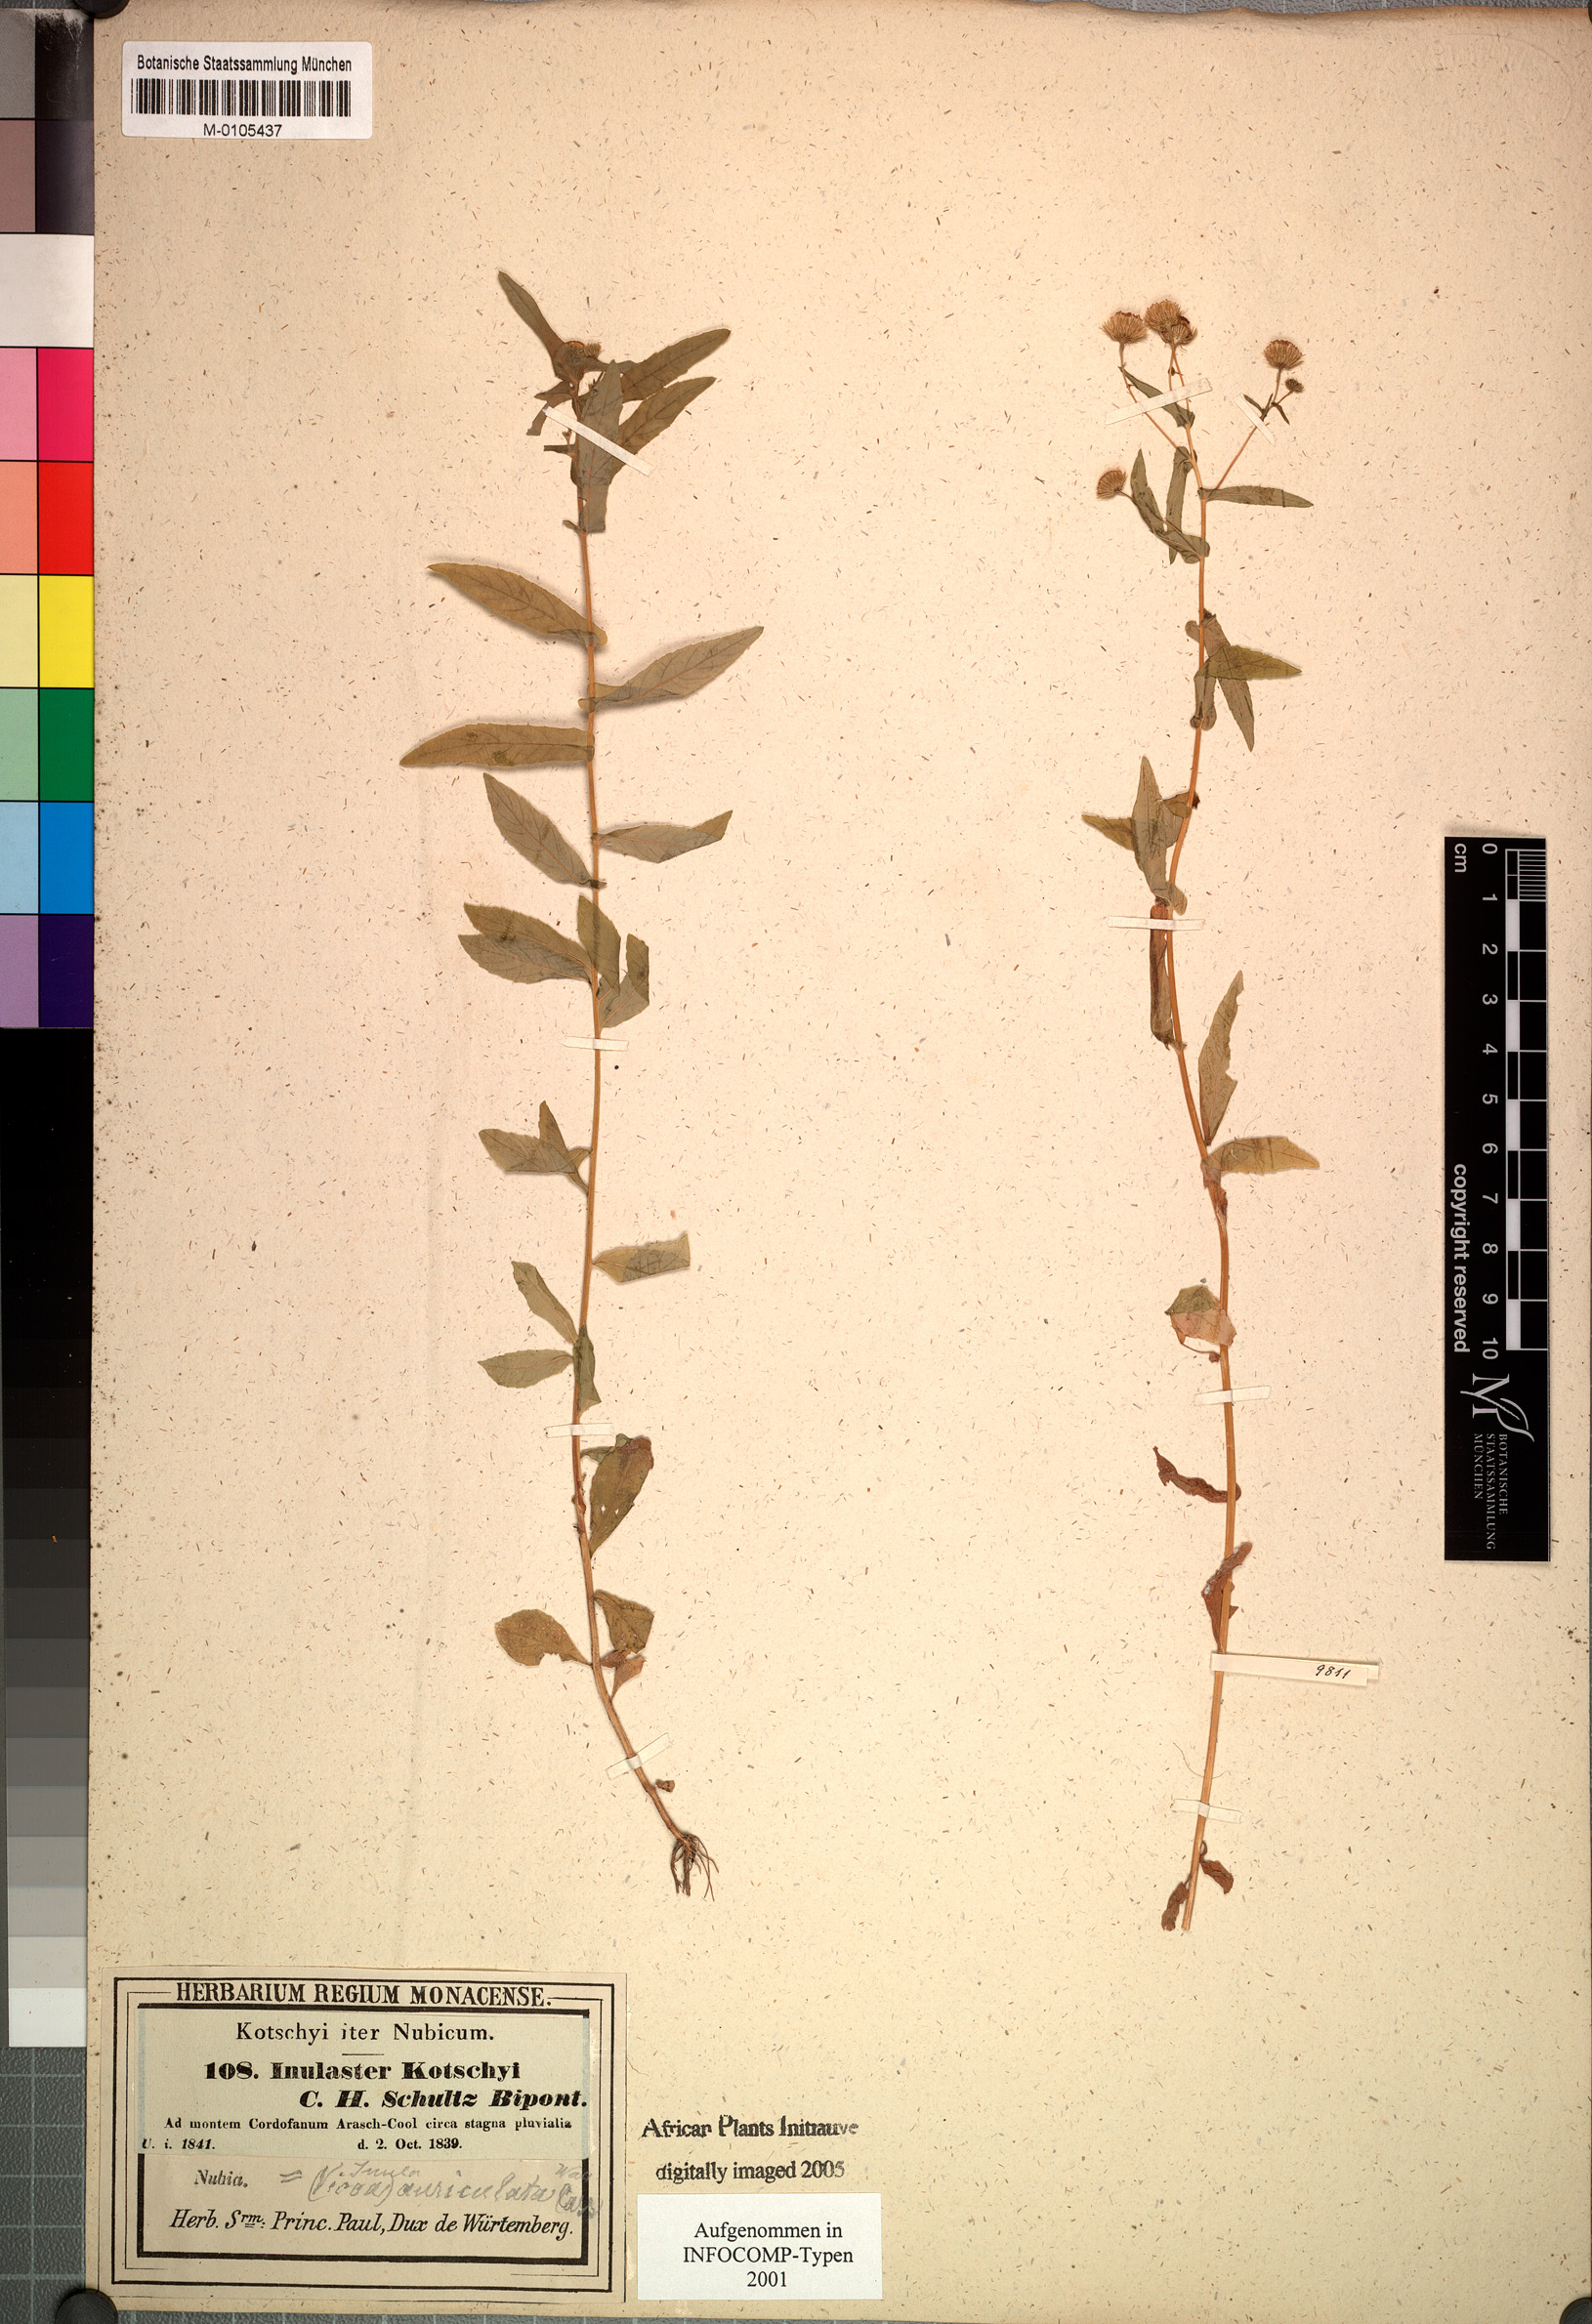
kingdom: Plantae
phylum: Tracheophyta
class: Magnoliopsida
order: Asterales
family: Asteraceae
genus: Vicoa
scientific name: Vicoa indica
